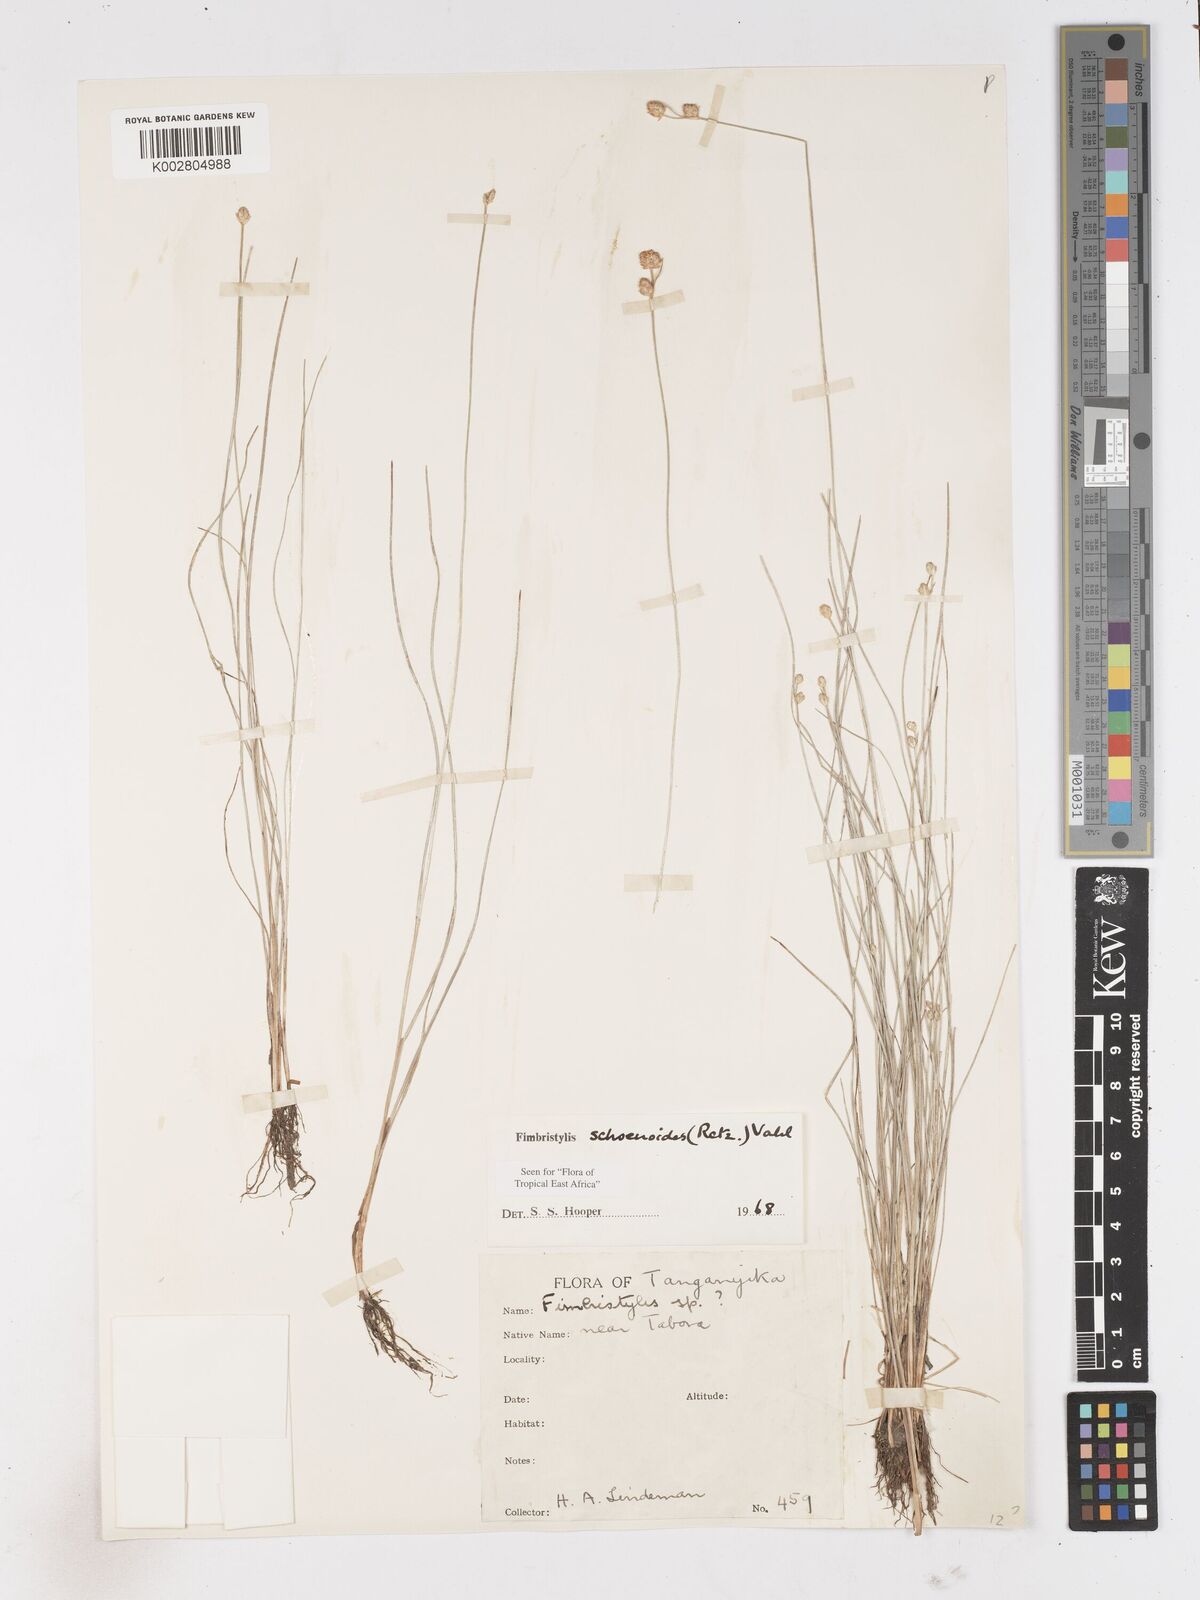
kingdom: Plantae
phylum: Tracheophyta
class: Liliopsida
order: Poales
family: Cyperaceae
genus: Fimbristylis
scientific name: Fimbristylis schoenoides
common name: Ditch fimbry
